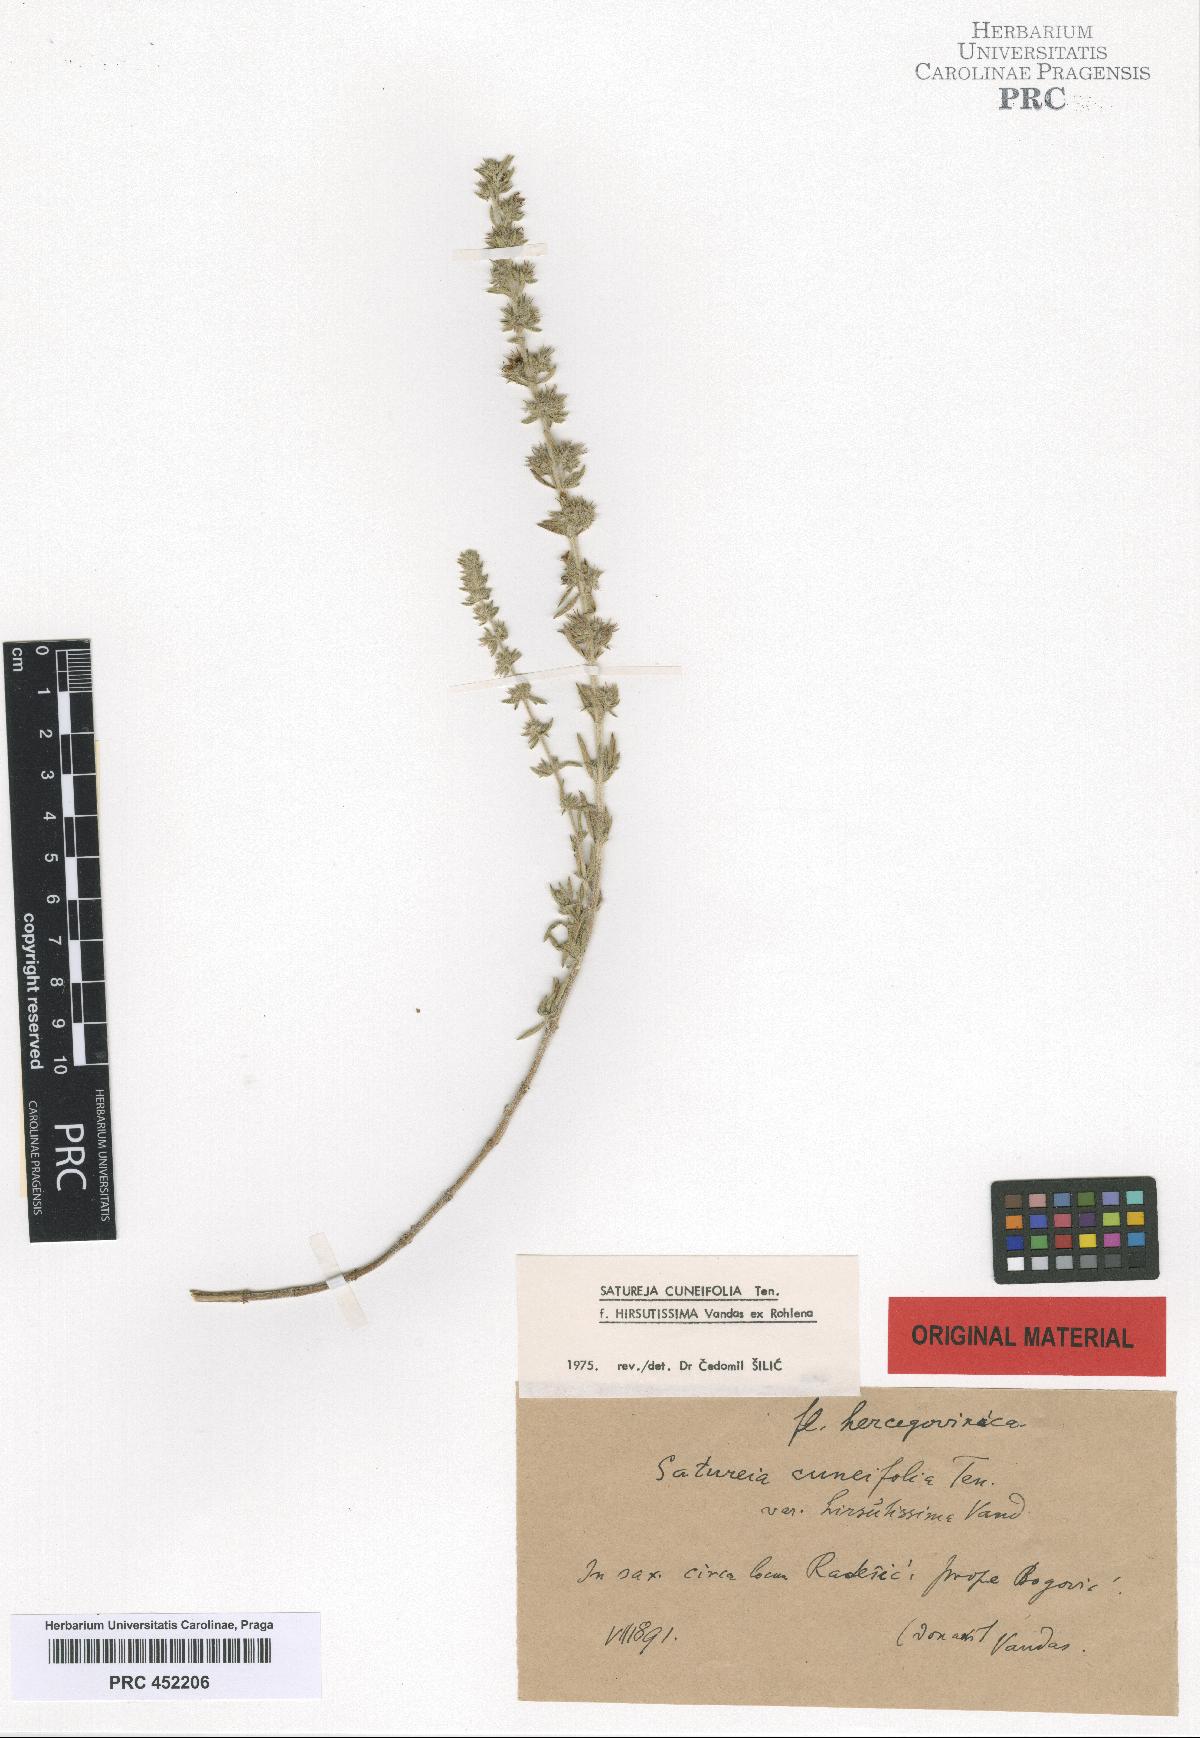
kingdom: Plantae
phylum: Tracheophyta
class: Magnoliopsida
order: Lamiales
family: Lamiaceae
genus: Satureja
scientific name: Satureja cuneifolia
